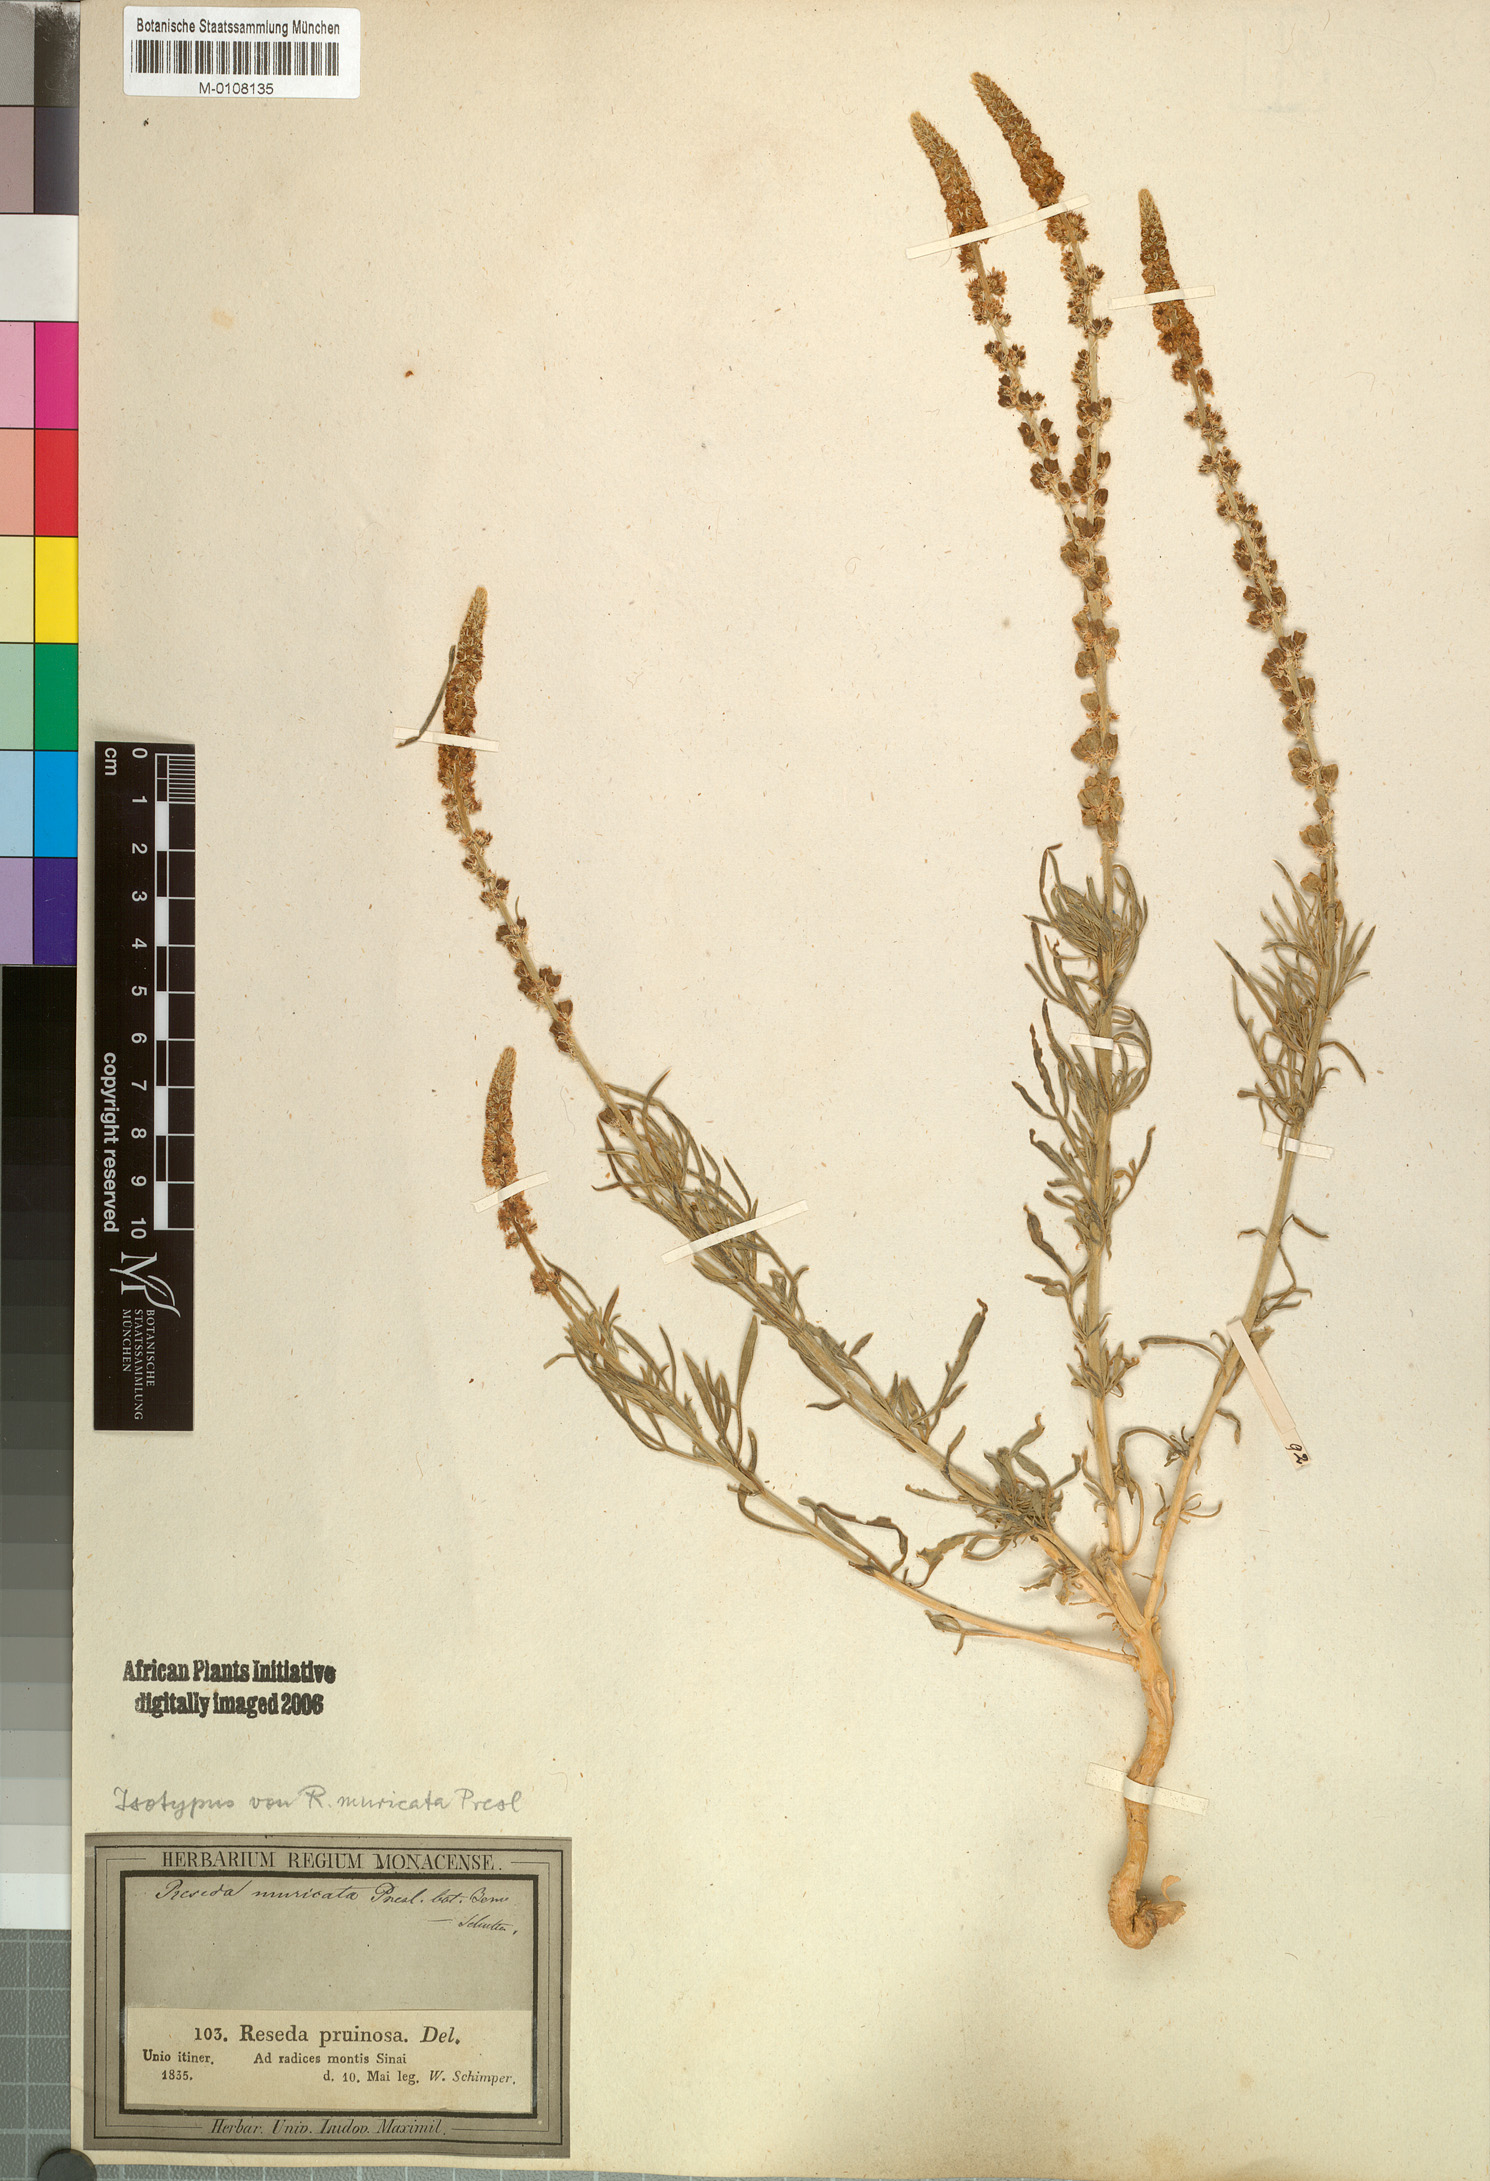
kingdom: Plantae
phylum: Tracheophyta
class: Magnoliopsida
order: Brassicales
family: Resedaceae
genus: Reseda
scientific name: Reseda muricata
